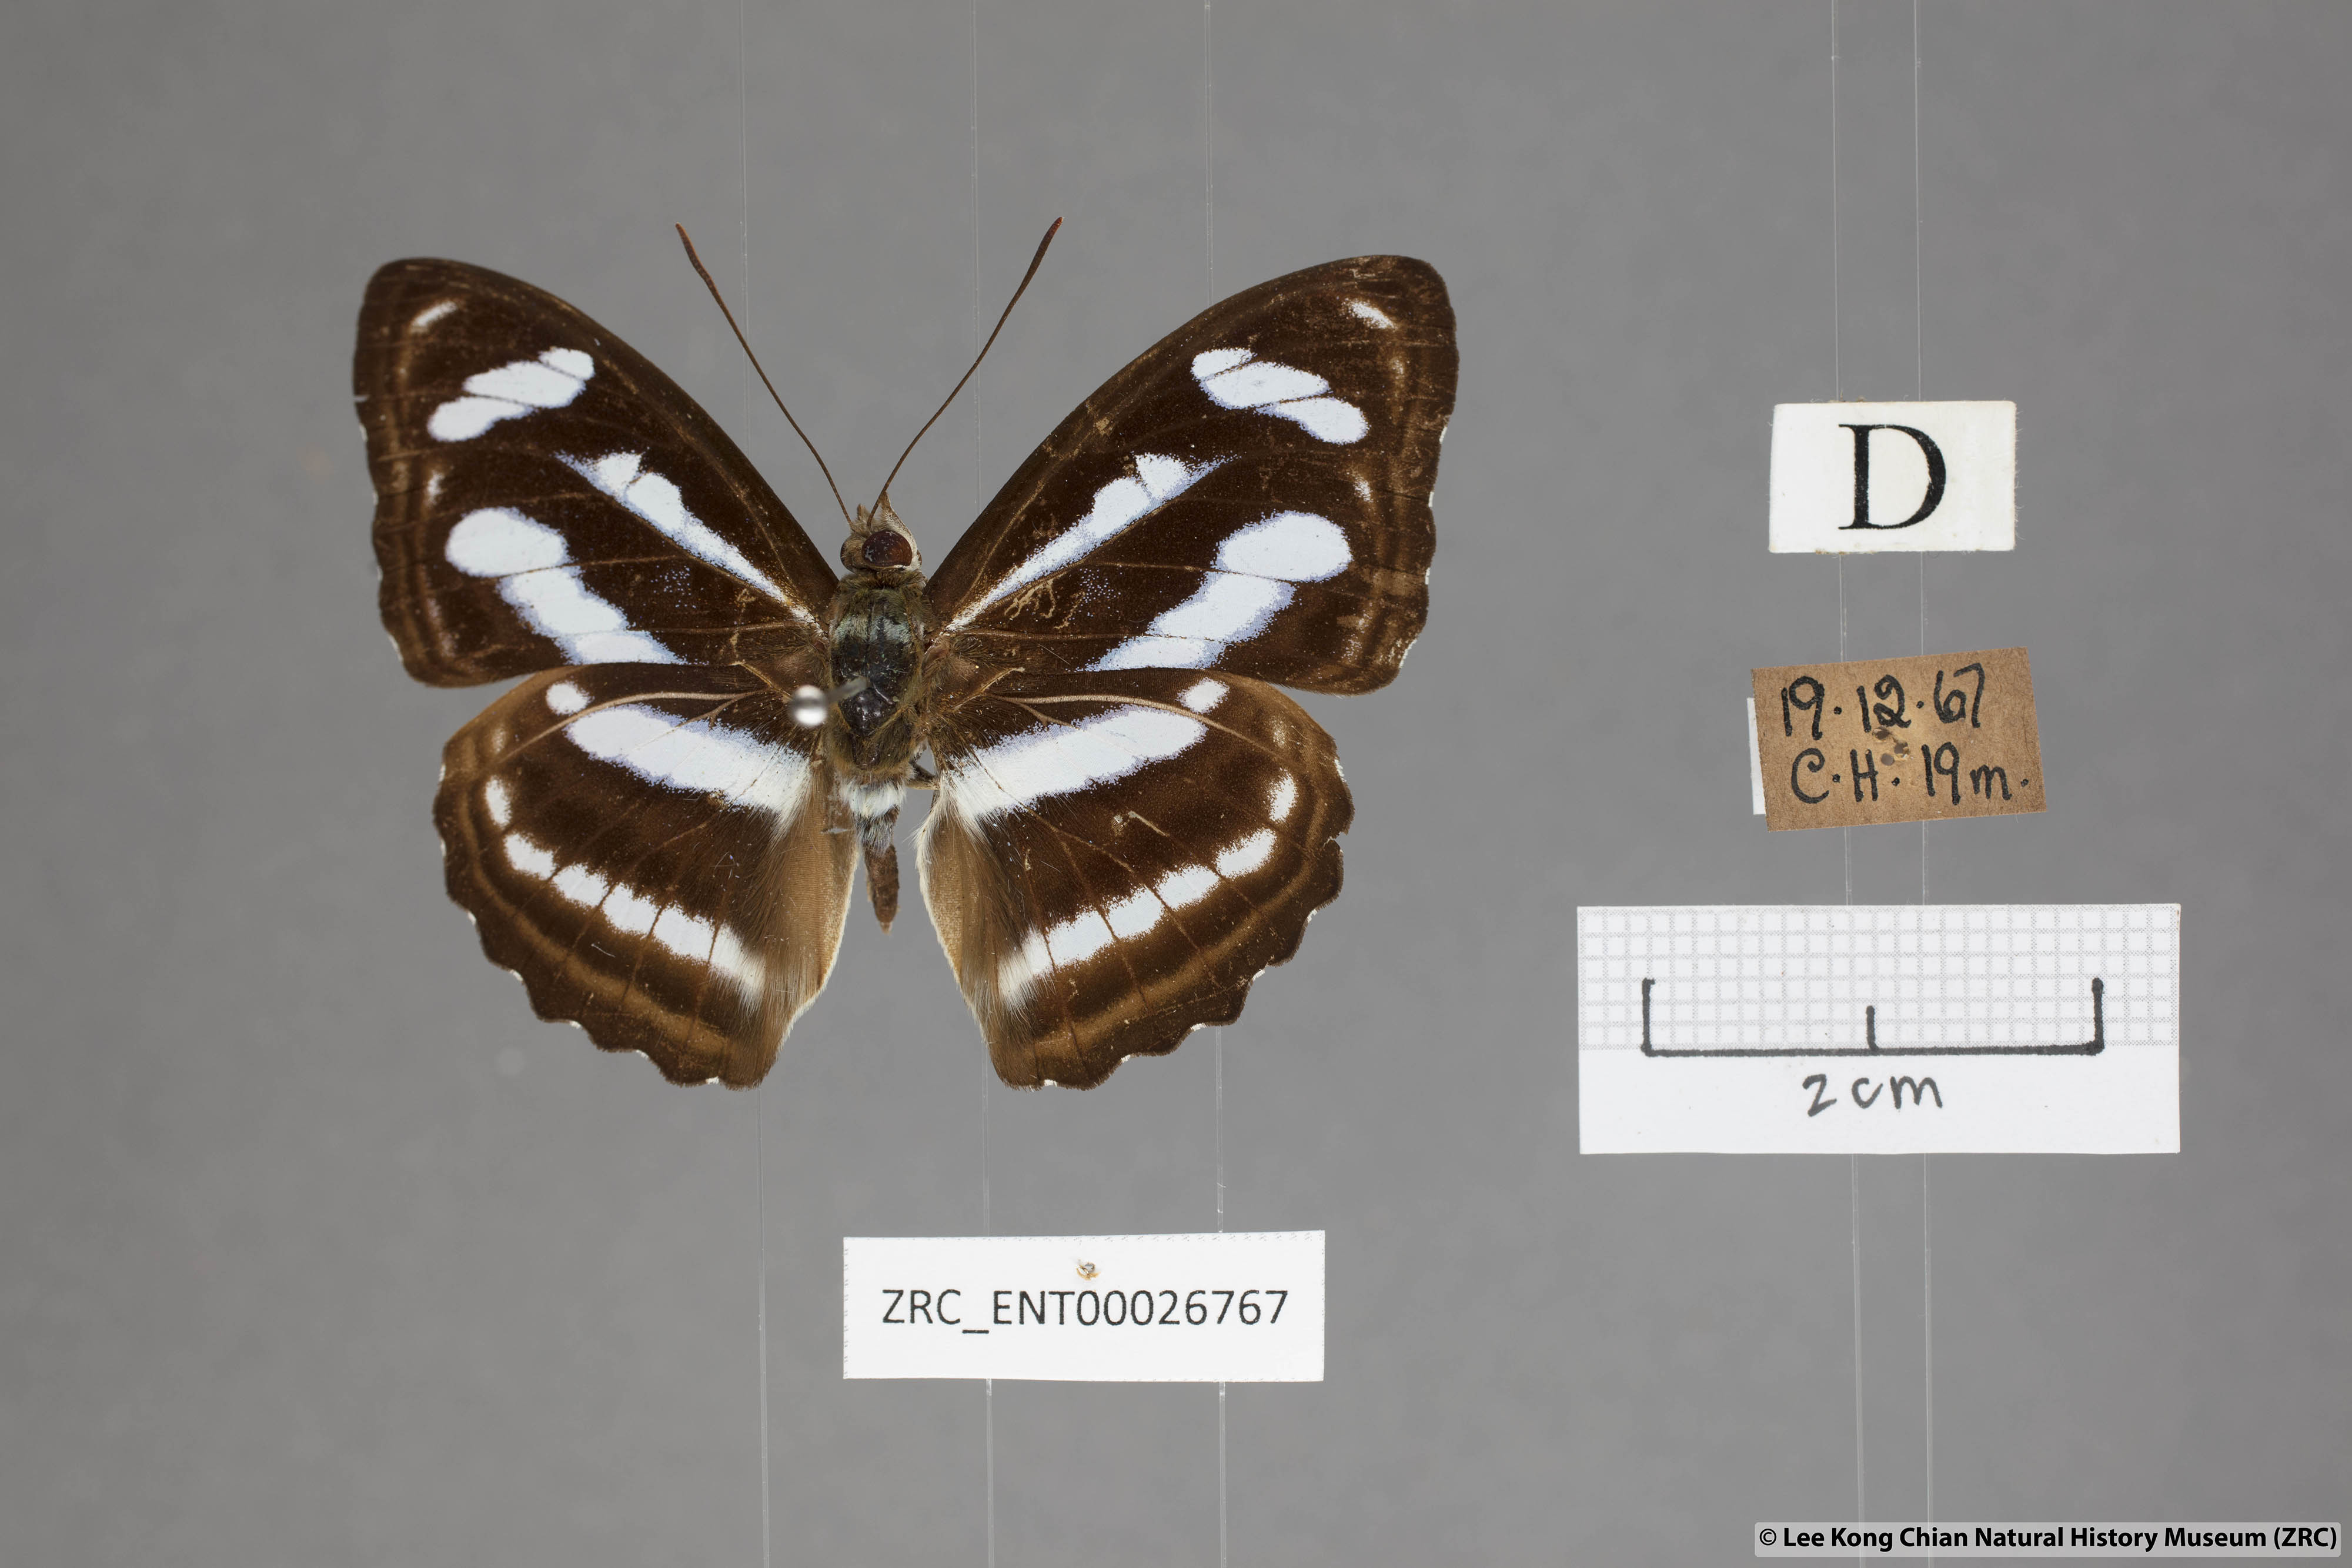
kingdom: Animalia
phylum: Arthropoda
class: Insecta
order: Lepidoptera
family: Nymphalidae
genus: Parathyma
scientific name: Parathyma nefte
